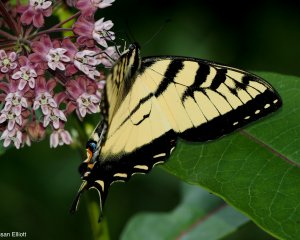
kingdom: Animalia
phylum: Arthropoda
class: Insecta
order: Lepidoptera
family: Papilionidae
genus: Pterourus
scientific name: Pterourus glaucus
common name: Eastern Tiger Swallowtail
